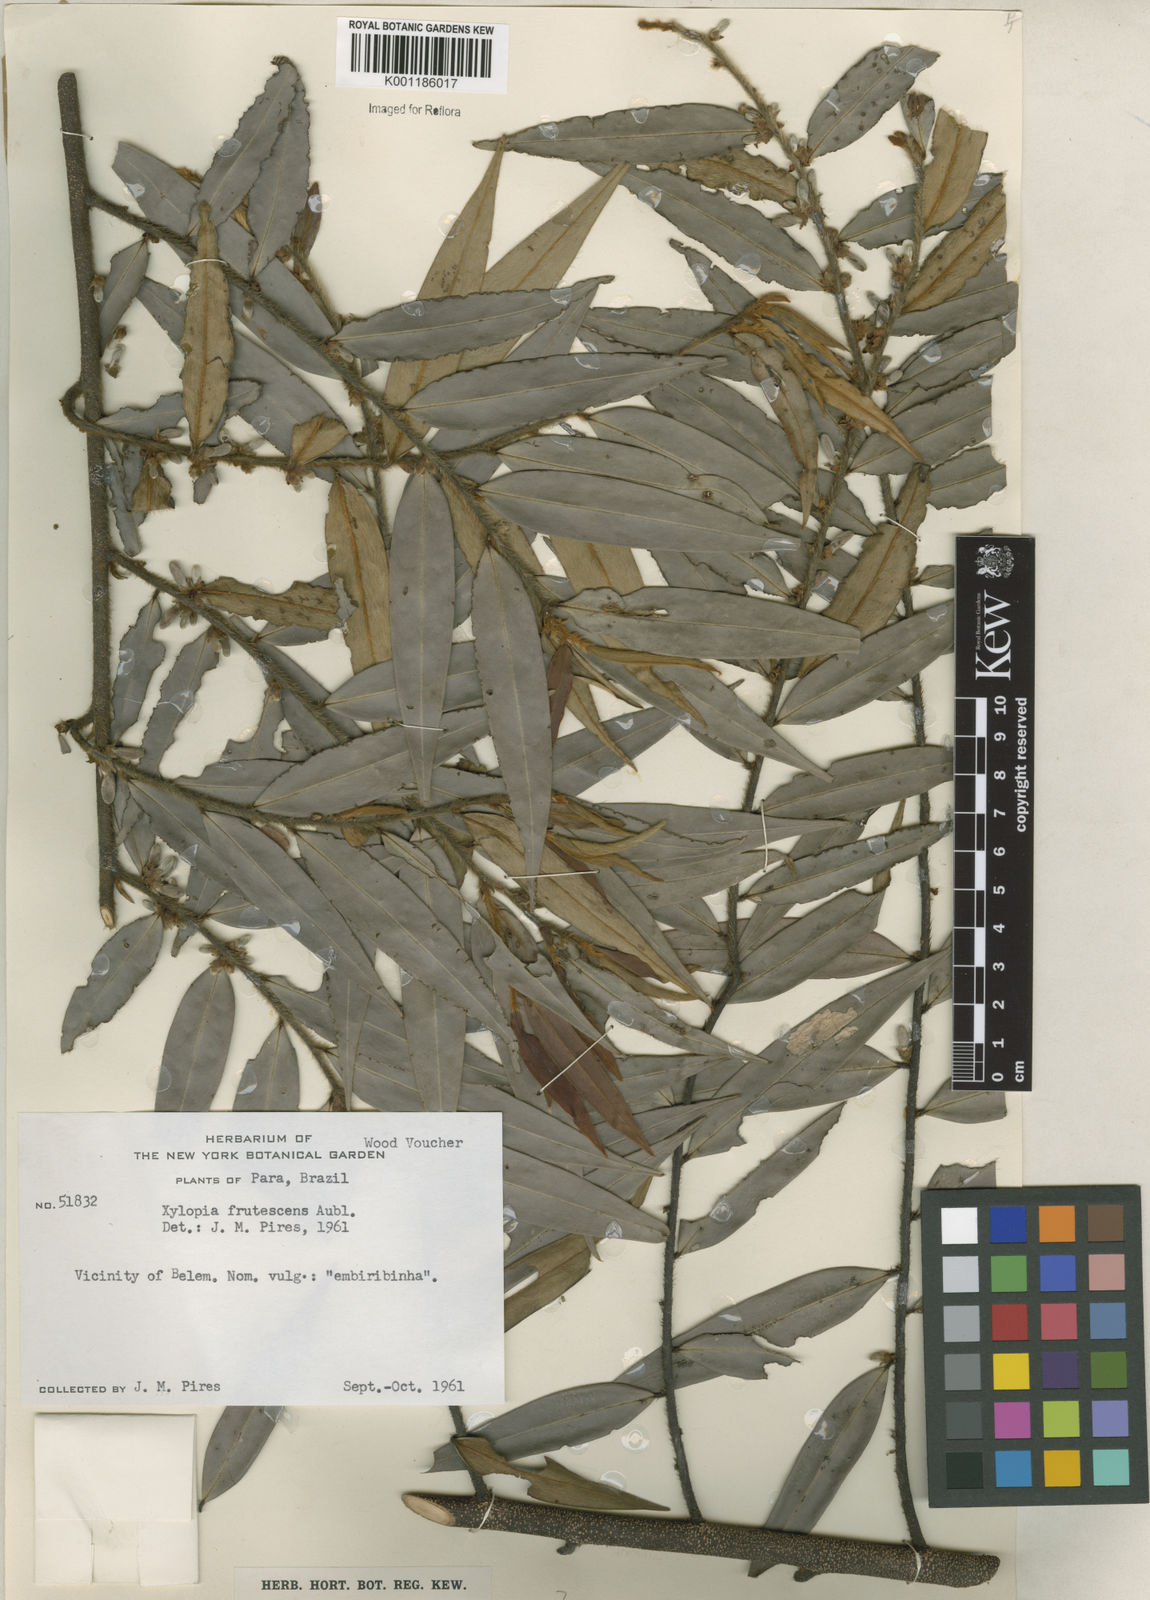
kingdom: Plantae
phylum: Tracheophyta
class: Magnoliopsida
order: Magnoliales
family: Annonaceae
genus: Xylopia
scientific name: Xylopia frutescens
